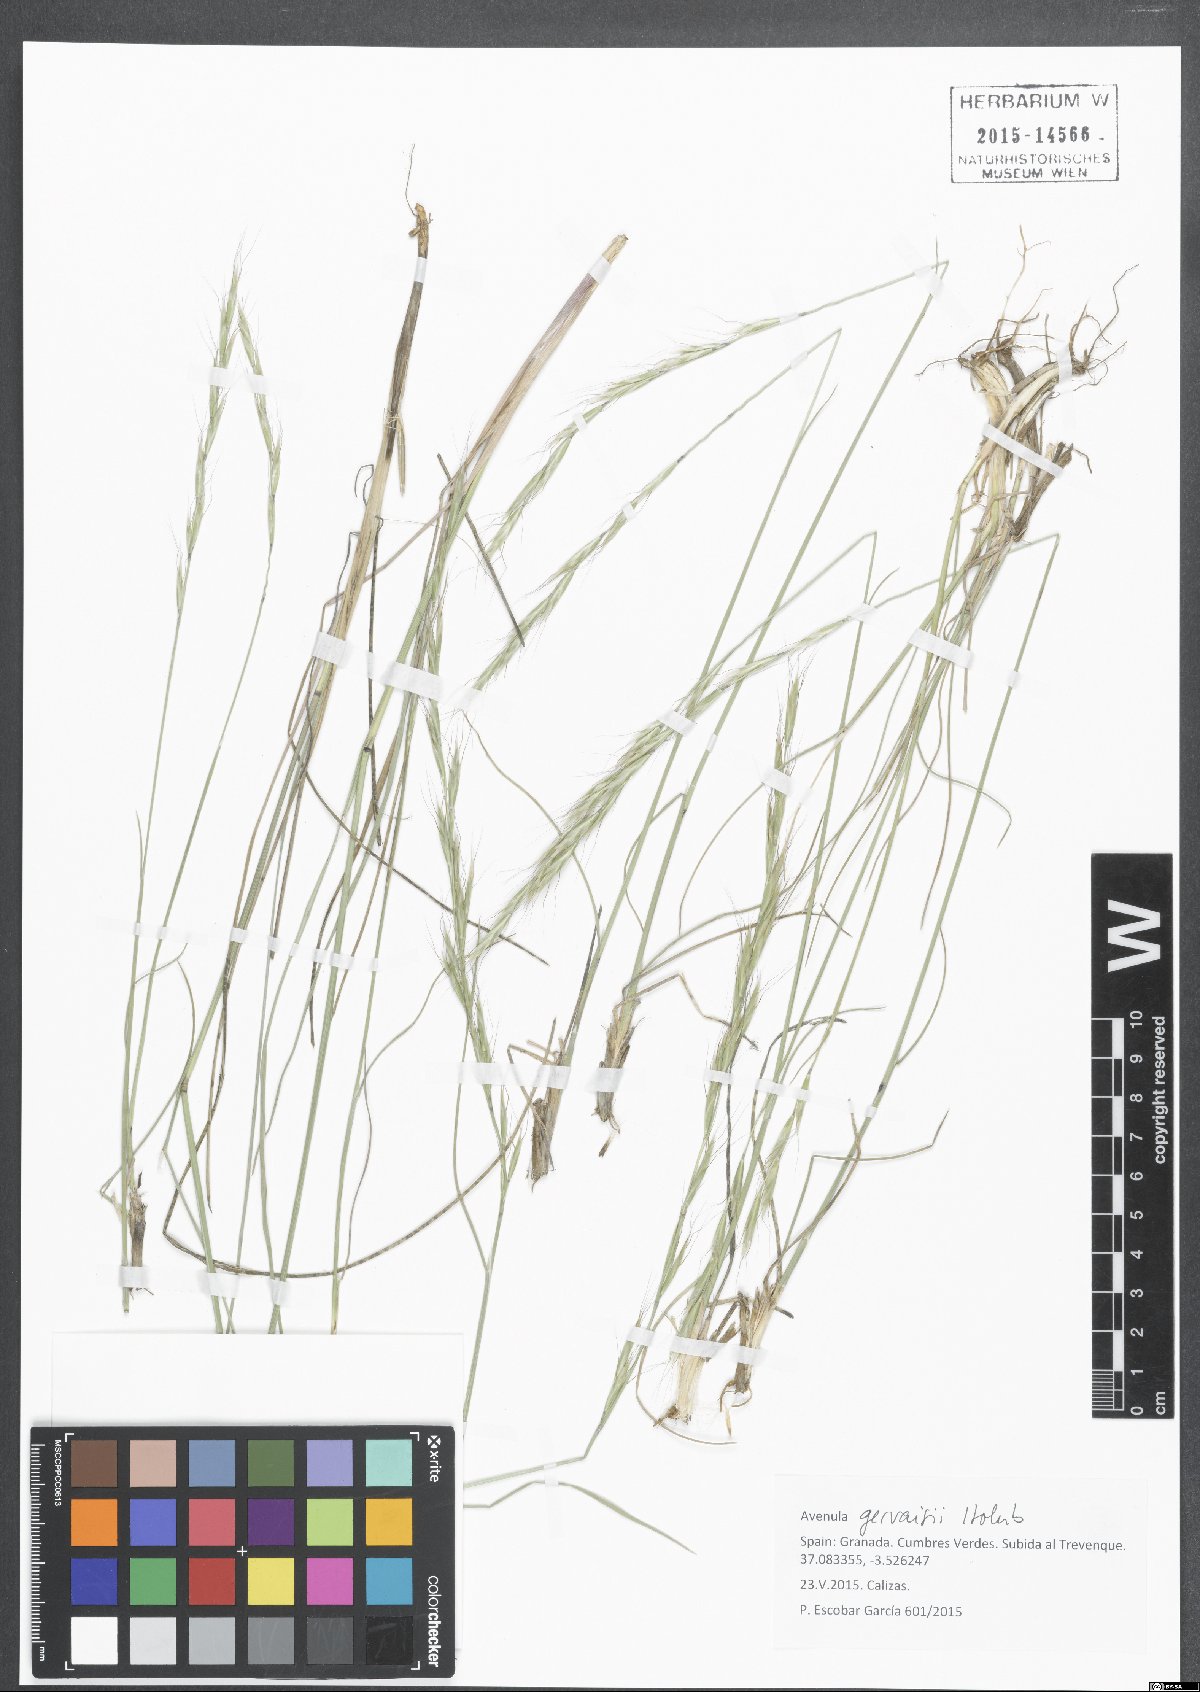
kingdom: Plantae
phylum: Tracheophyta
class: Liliopsida
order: Poales
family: Poaceae
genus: Helictochloa
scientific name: Helictochloa gervaisii
